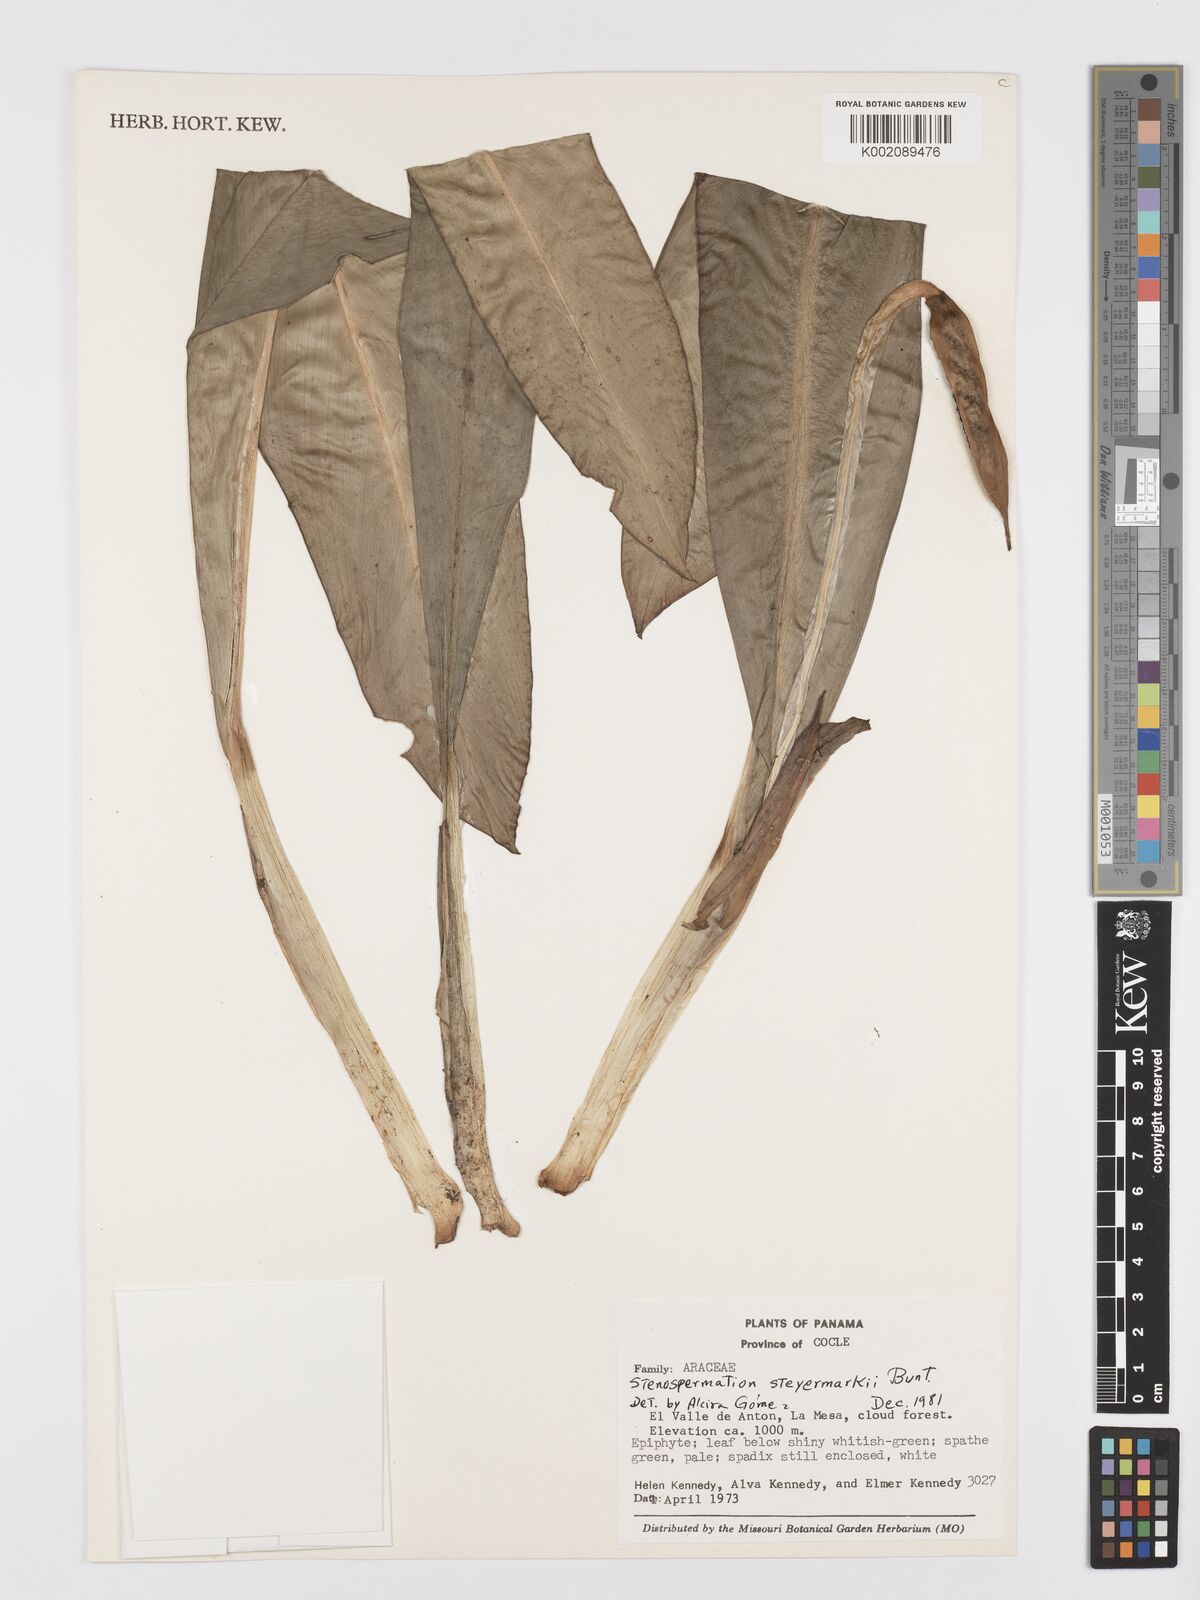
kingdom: Plantae
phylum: Tracheophyta
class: Liliopsida
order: Alismatales
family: Araceae
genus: Stenospermation
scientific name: Stenospermation steyermarkii
